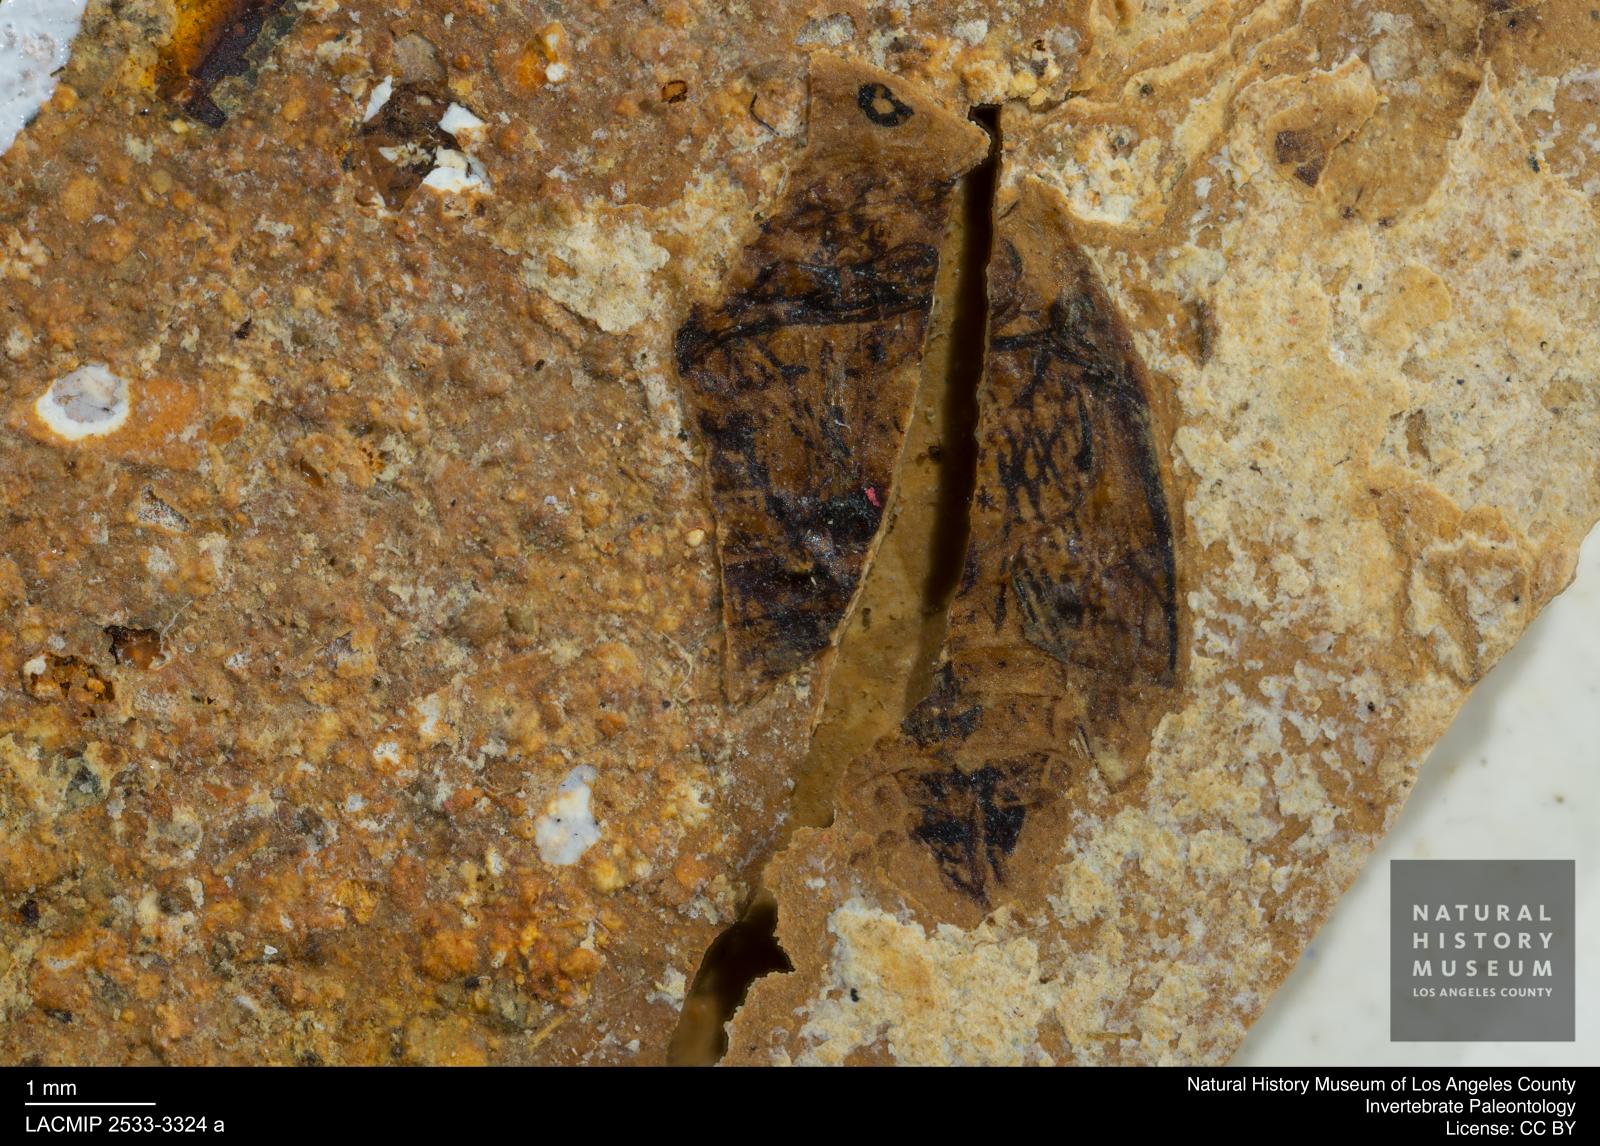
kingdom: Animalia
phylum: Arthropoda
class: Insecta
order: Coleoptera
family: Dytiscidae
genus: Laccophilus
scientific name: Laccophilus Palaeogyrinus strigatus
